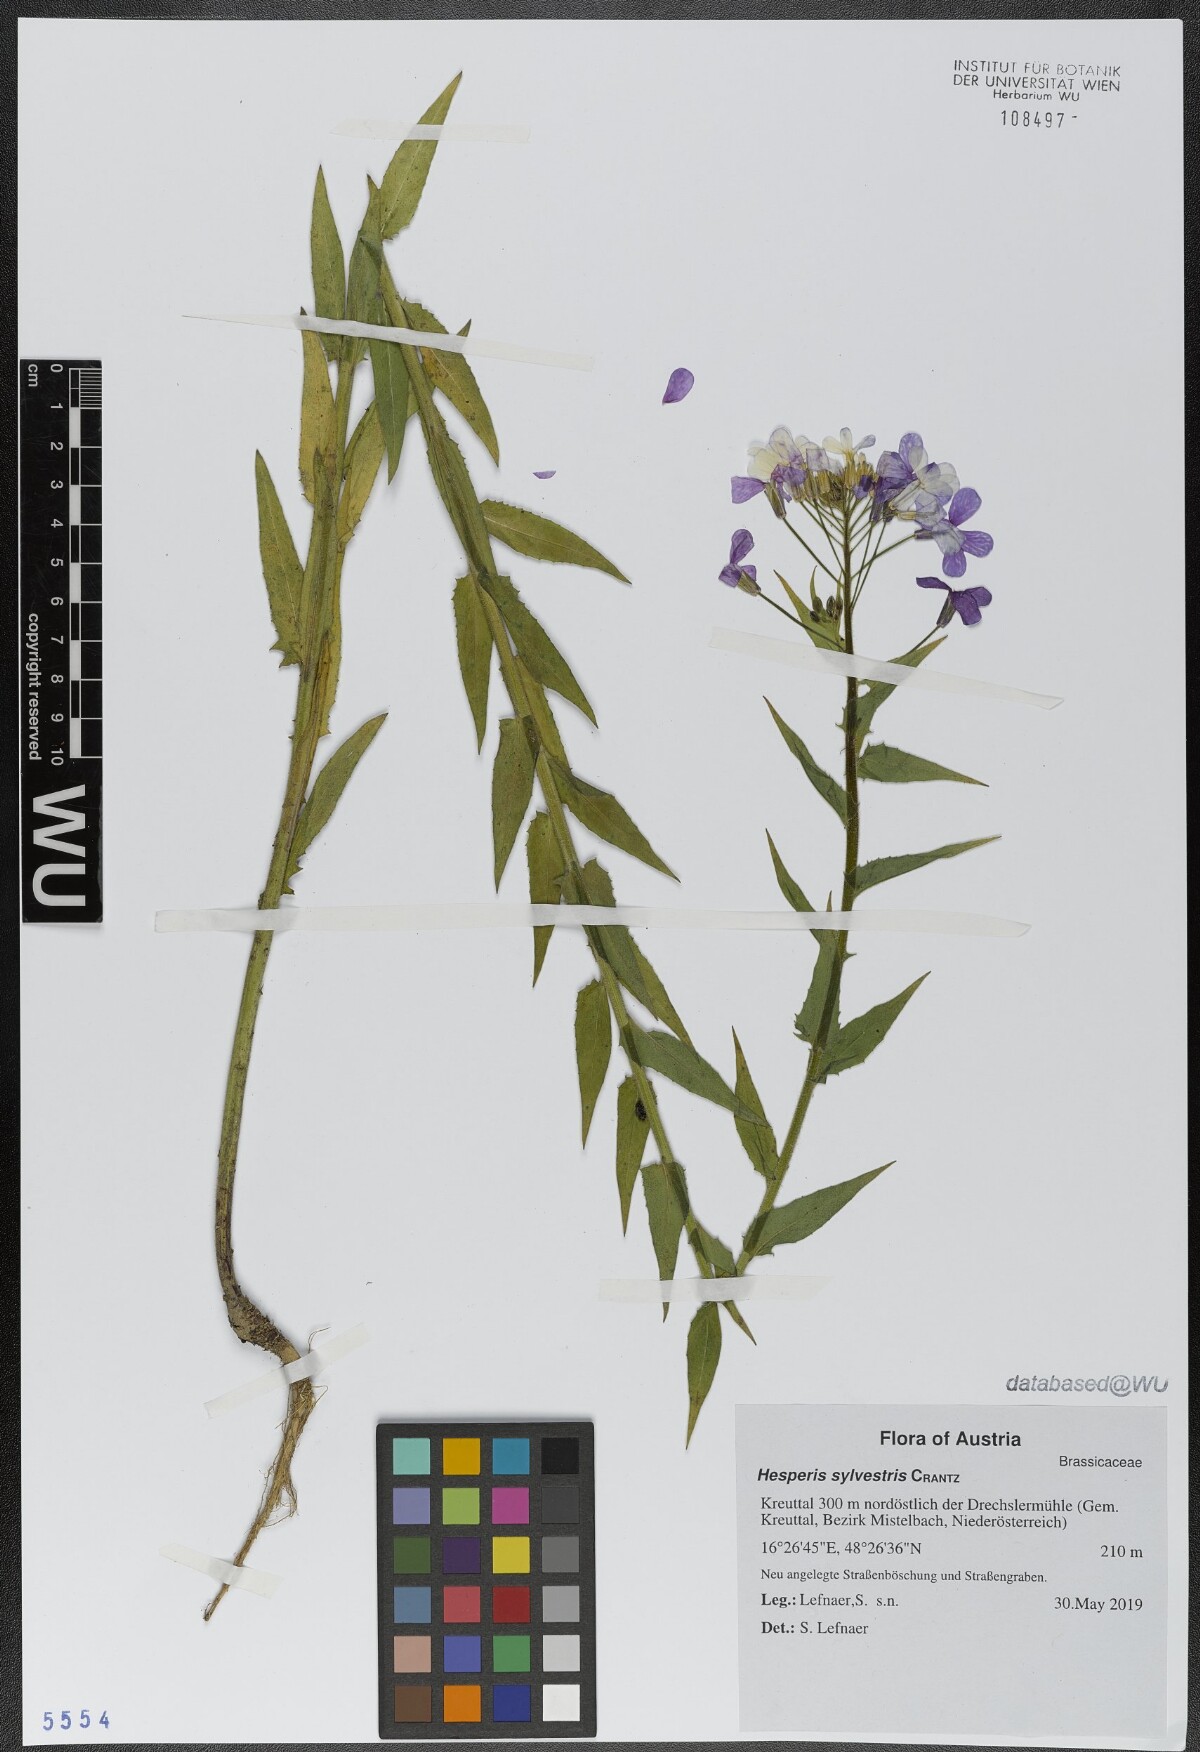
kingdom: Plantae
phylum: Tracheophyta
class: Magnoliopsida
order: Brassicales
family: Brassicaceae
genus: Hesperis
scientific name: Hesperis sylvestris
